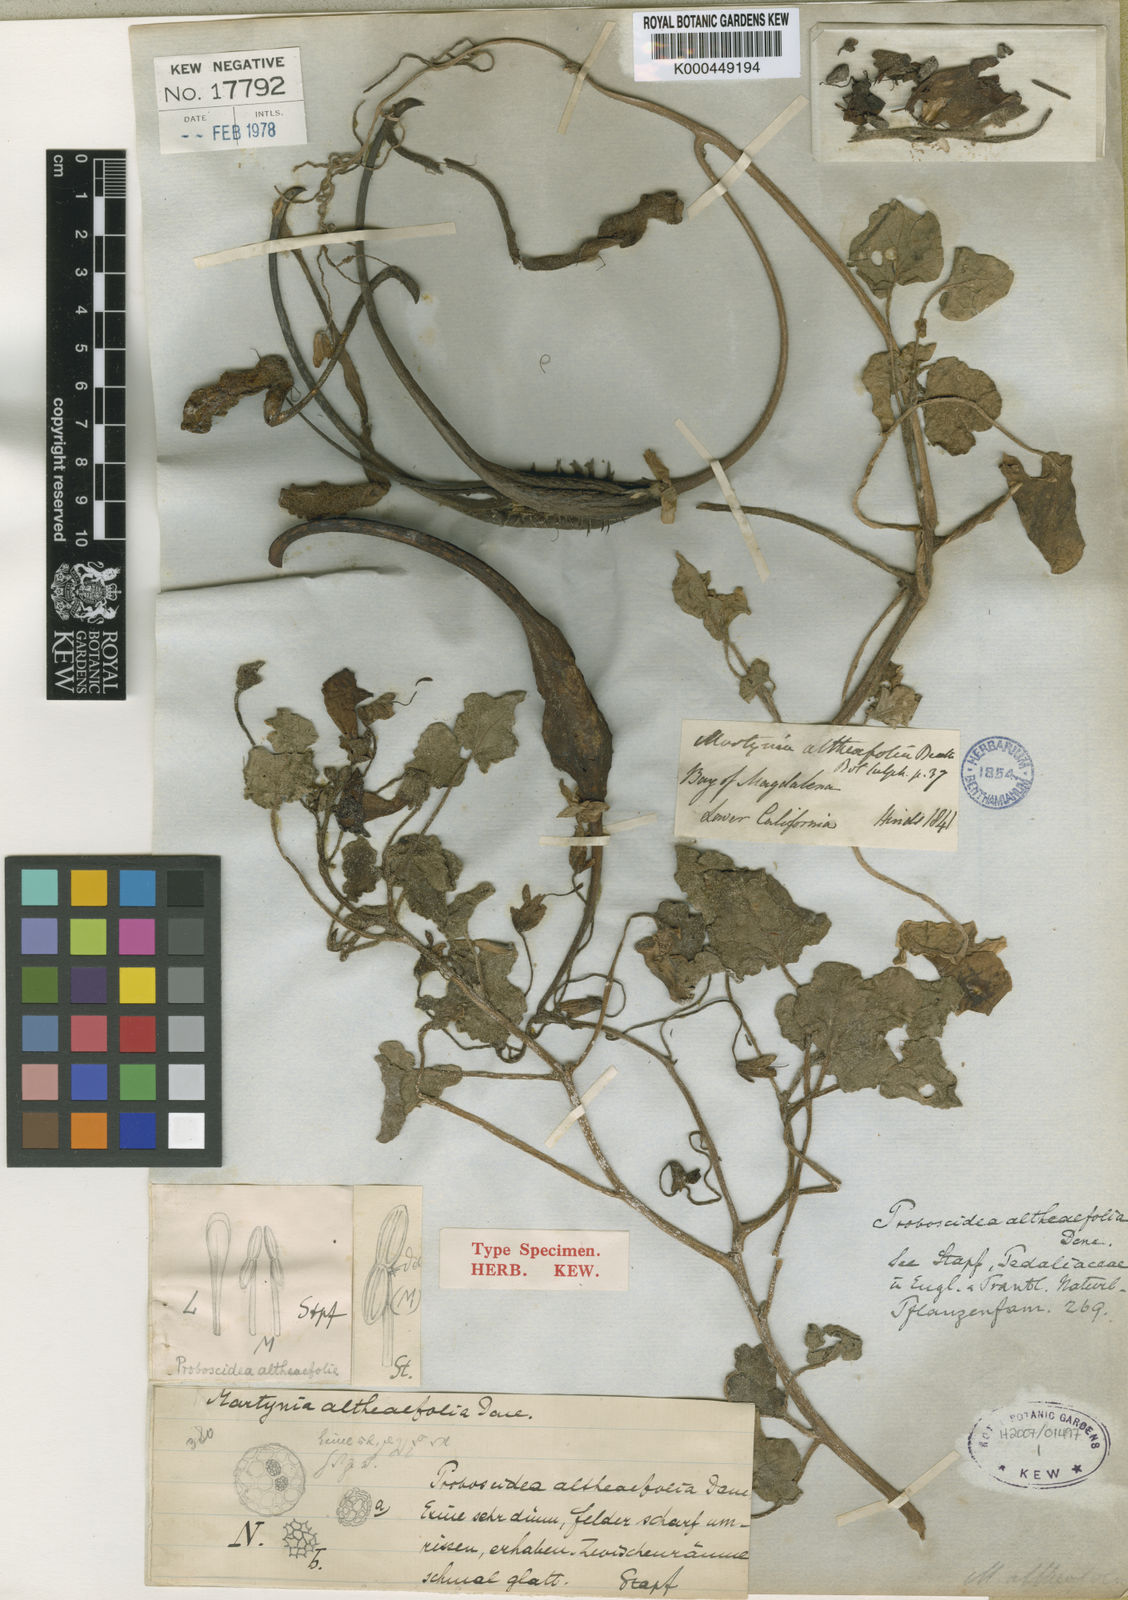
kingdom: Plantae
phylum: Tracheophyta
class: Magnoliopsida
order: Lamiales
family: Martyniaceae
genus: Proboscidea
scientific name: Proboscidea althaeifolia
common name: Desert unicorn-plant
